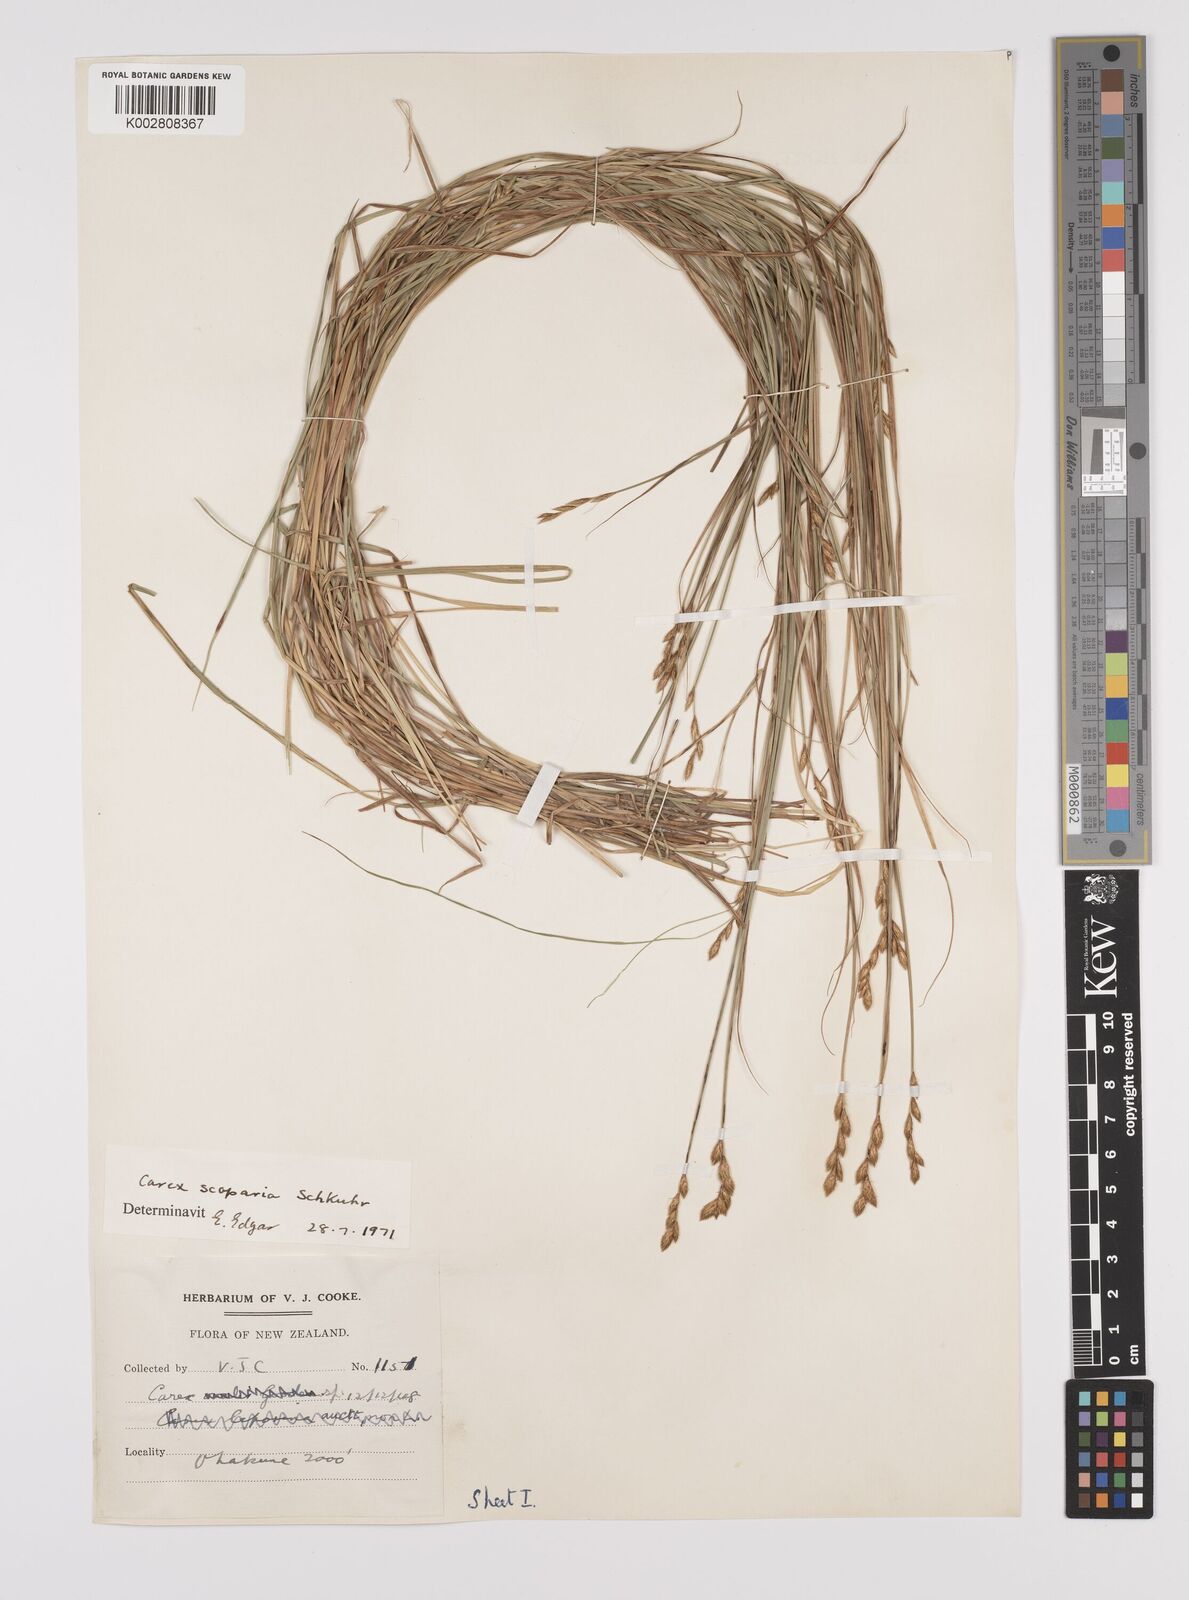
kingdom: Plantae
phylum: Tracheophyta
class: Liliopsida
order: Poales
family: Cyperaceae
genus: Carex
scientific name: Carex scoparia
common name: Broom sedge
